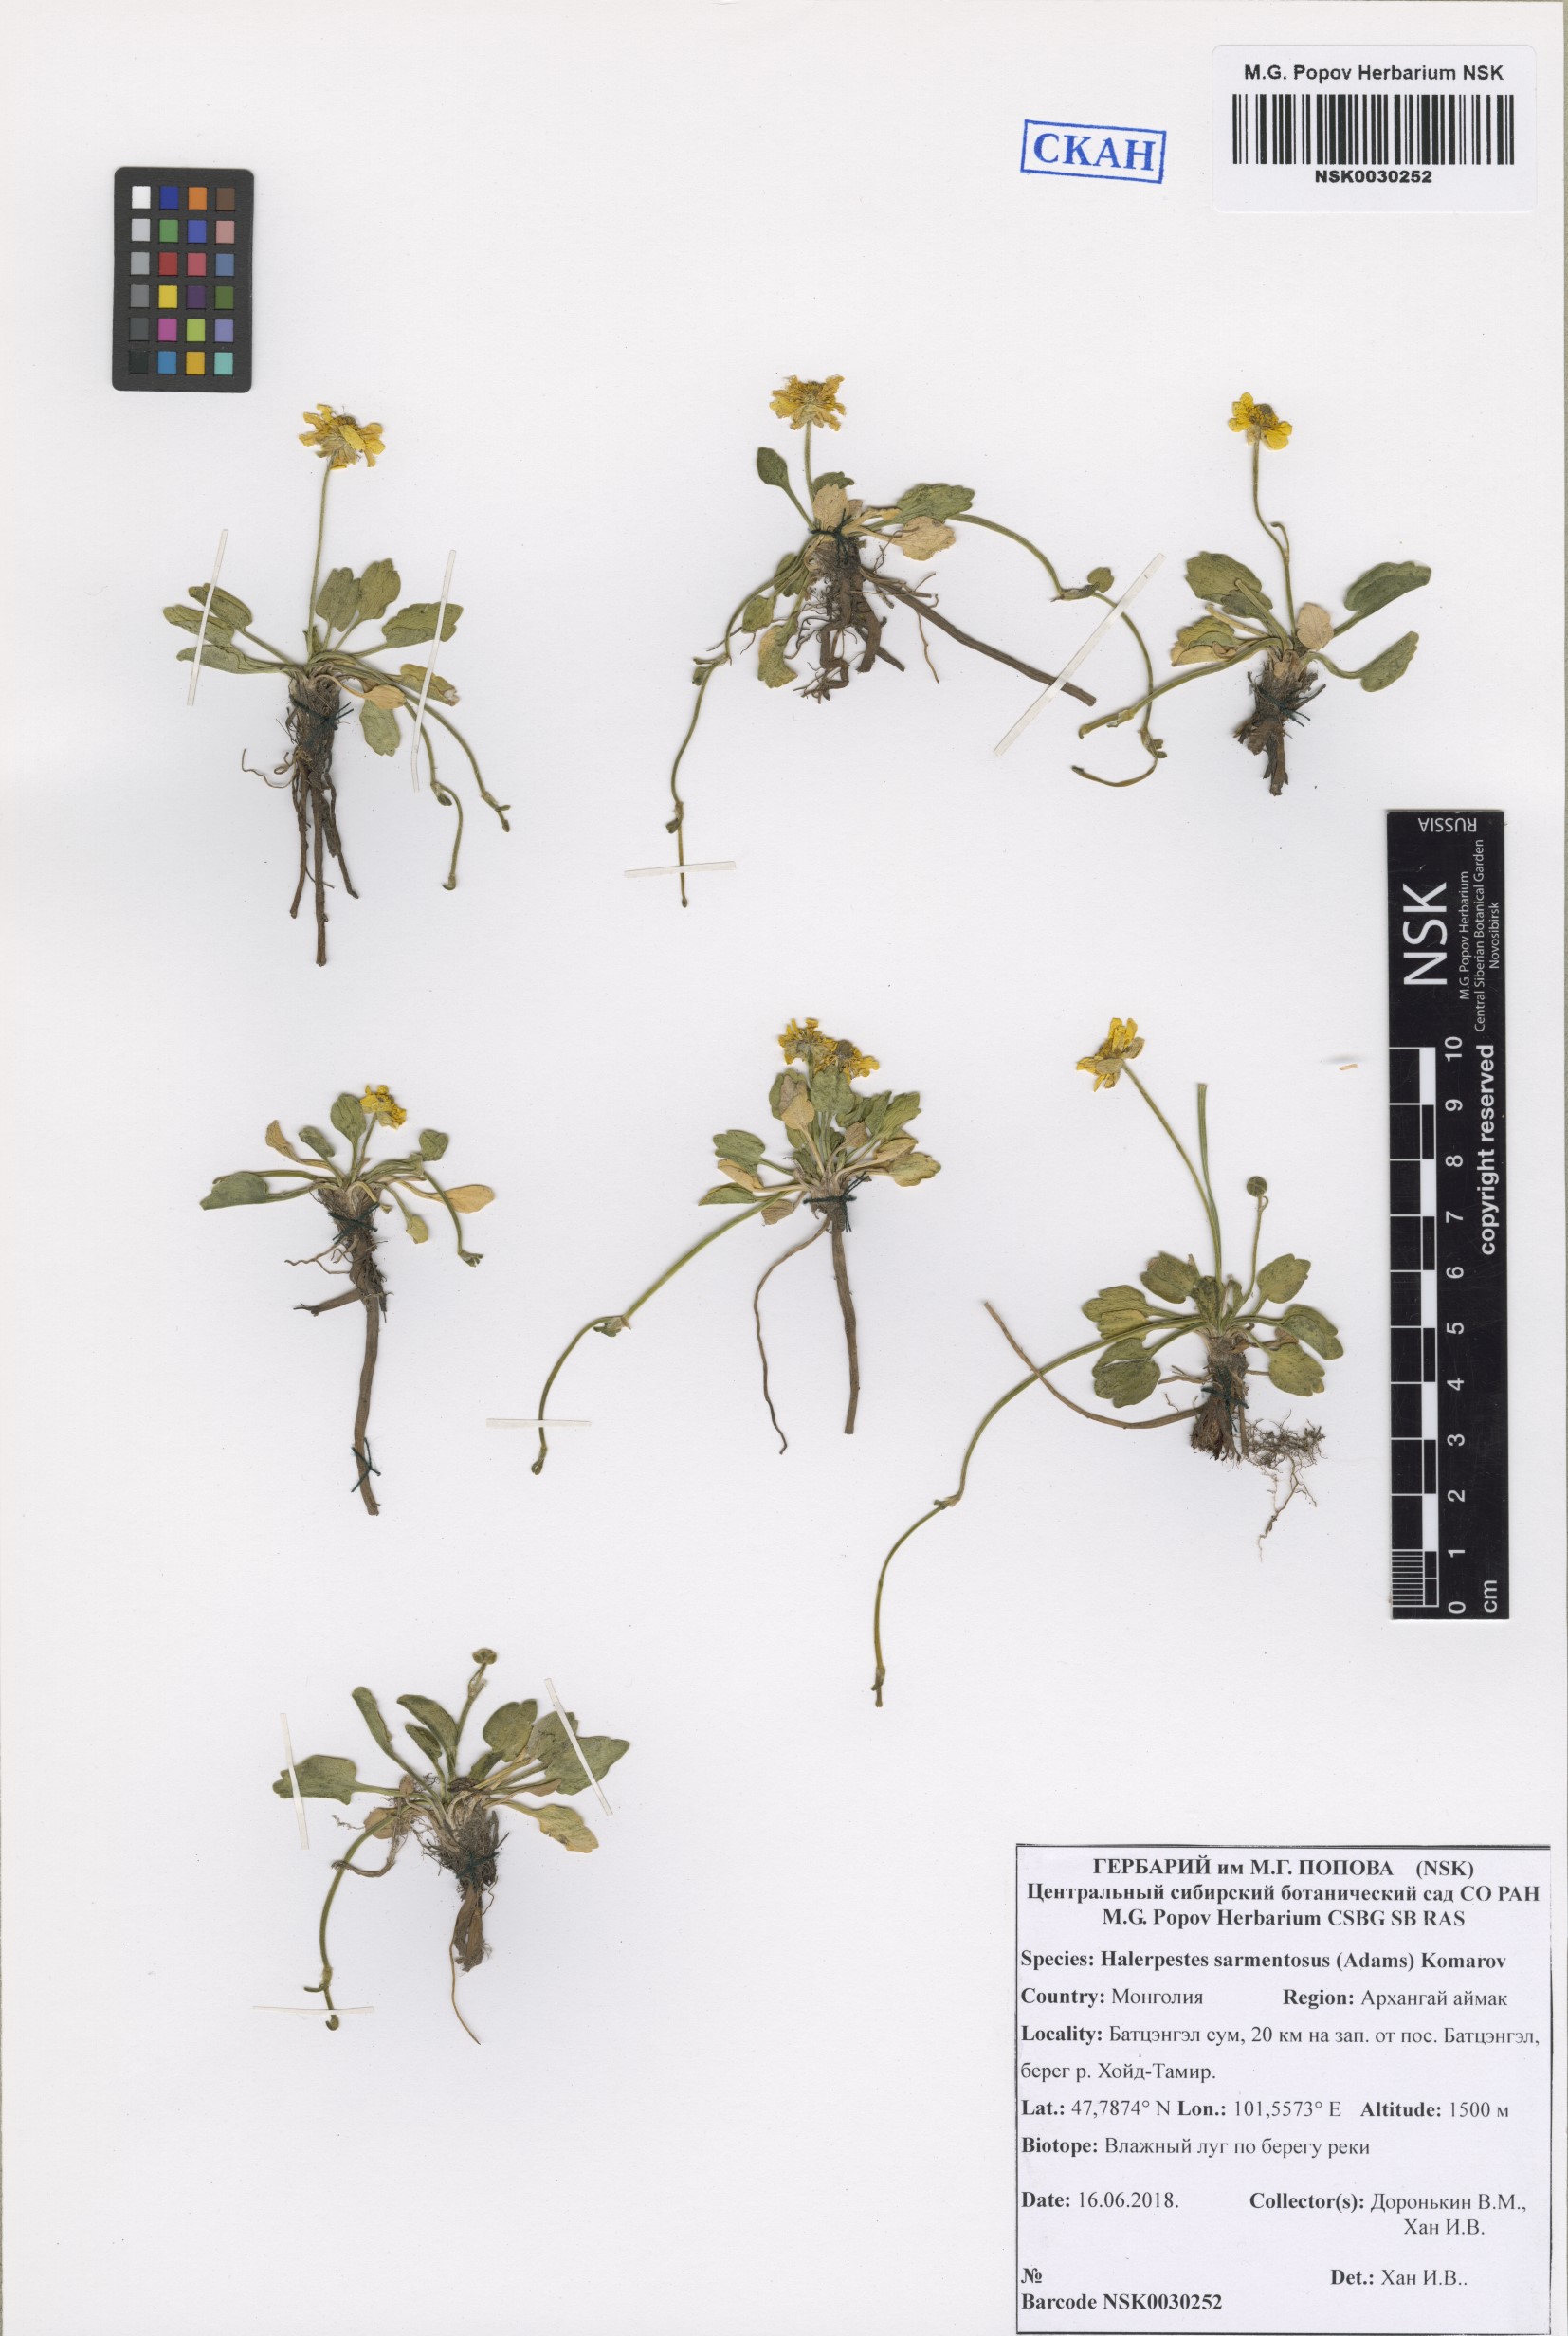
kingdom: Plantae
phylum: Tracheophyta
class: Magnoliopsida
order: Ranunculales
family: Ranunculaceae
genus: Halerpestes
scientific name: Halerpestes sarmentosus
